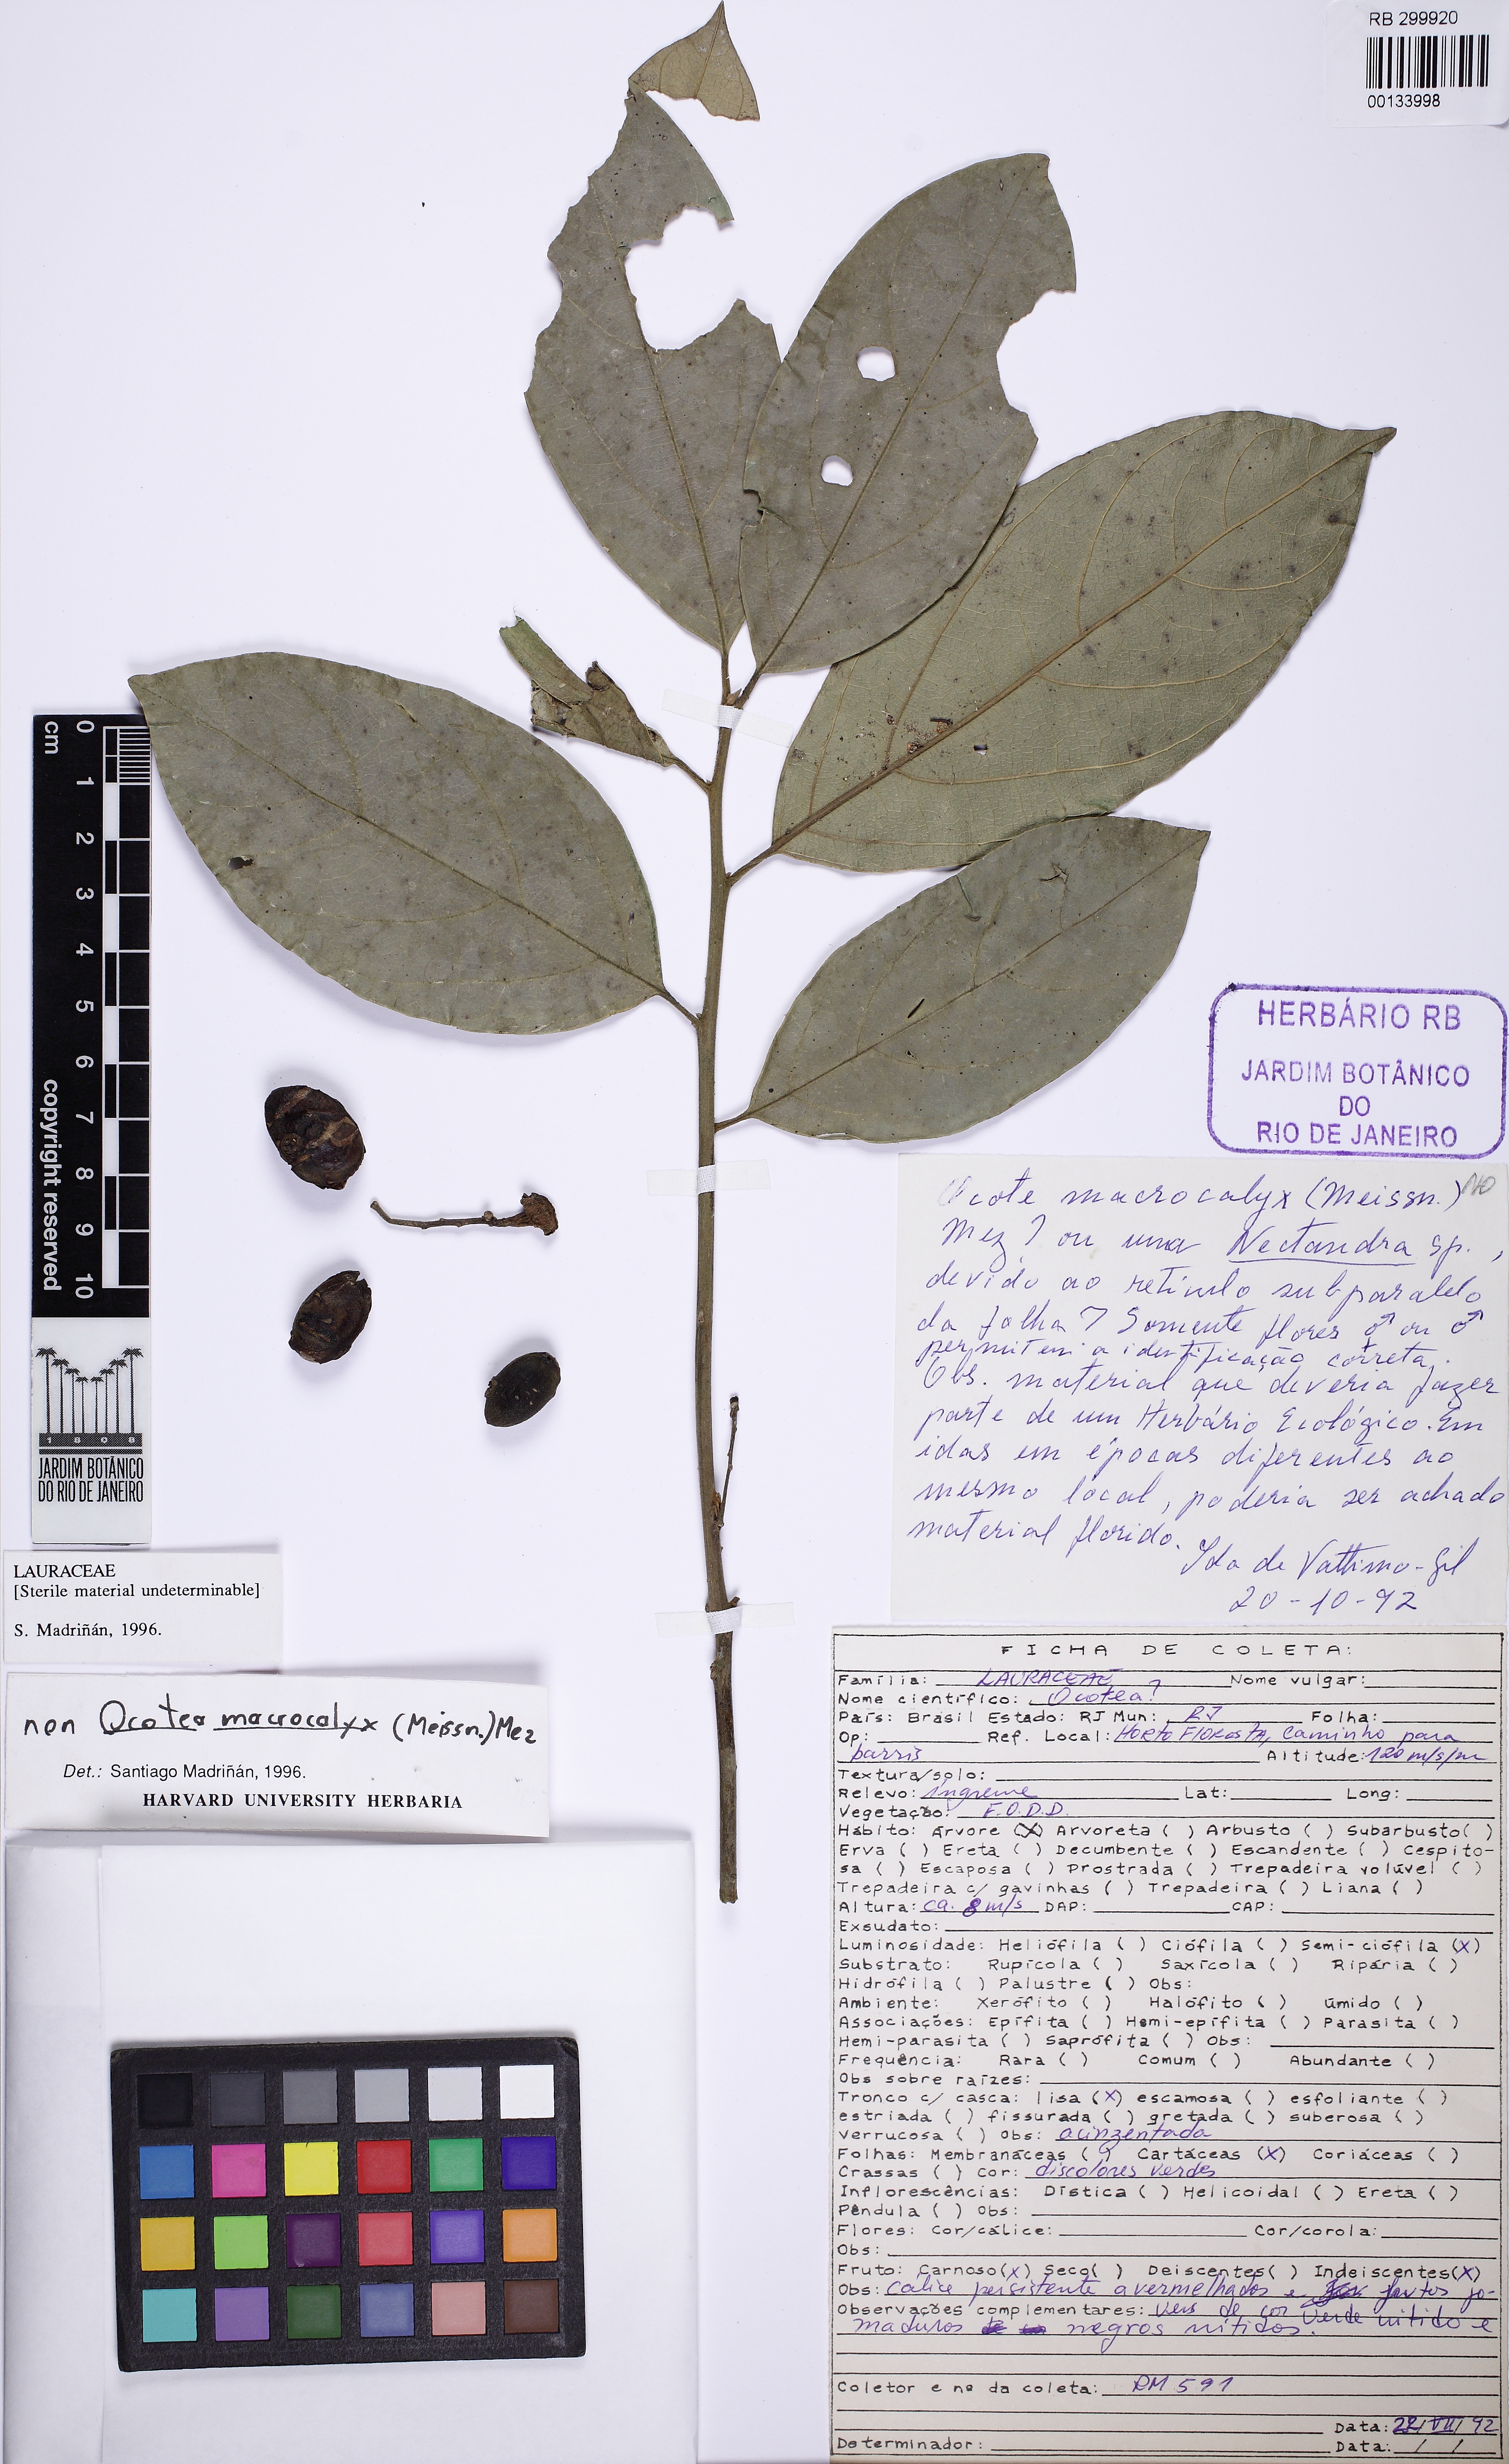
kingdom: Plantae
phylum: Tracheophyta
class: Magnoliopsida
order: Laurales
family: Lauraceae
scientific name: Lauraceae
